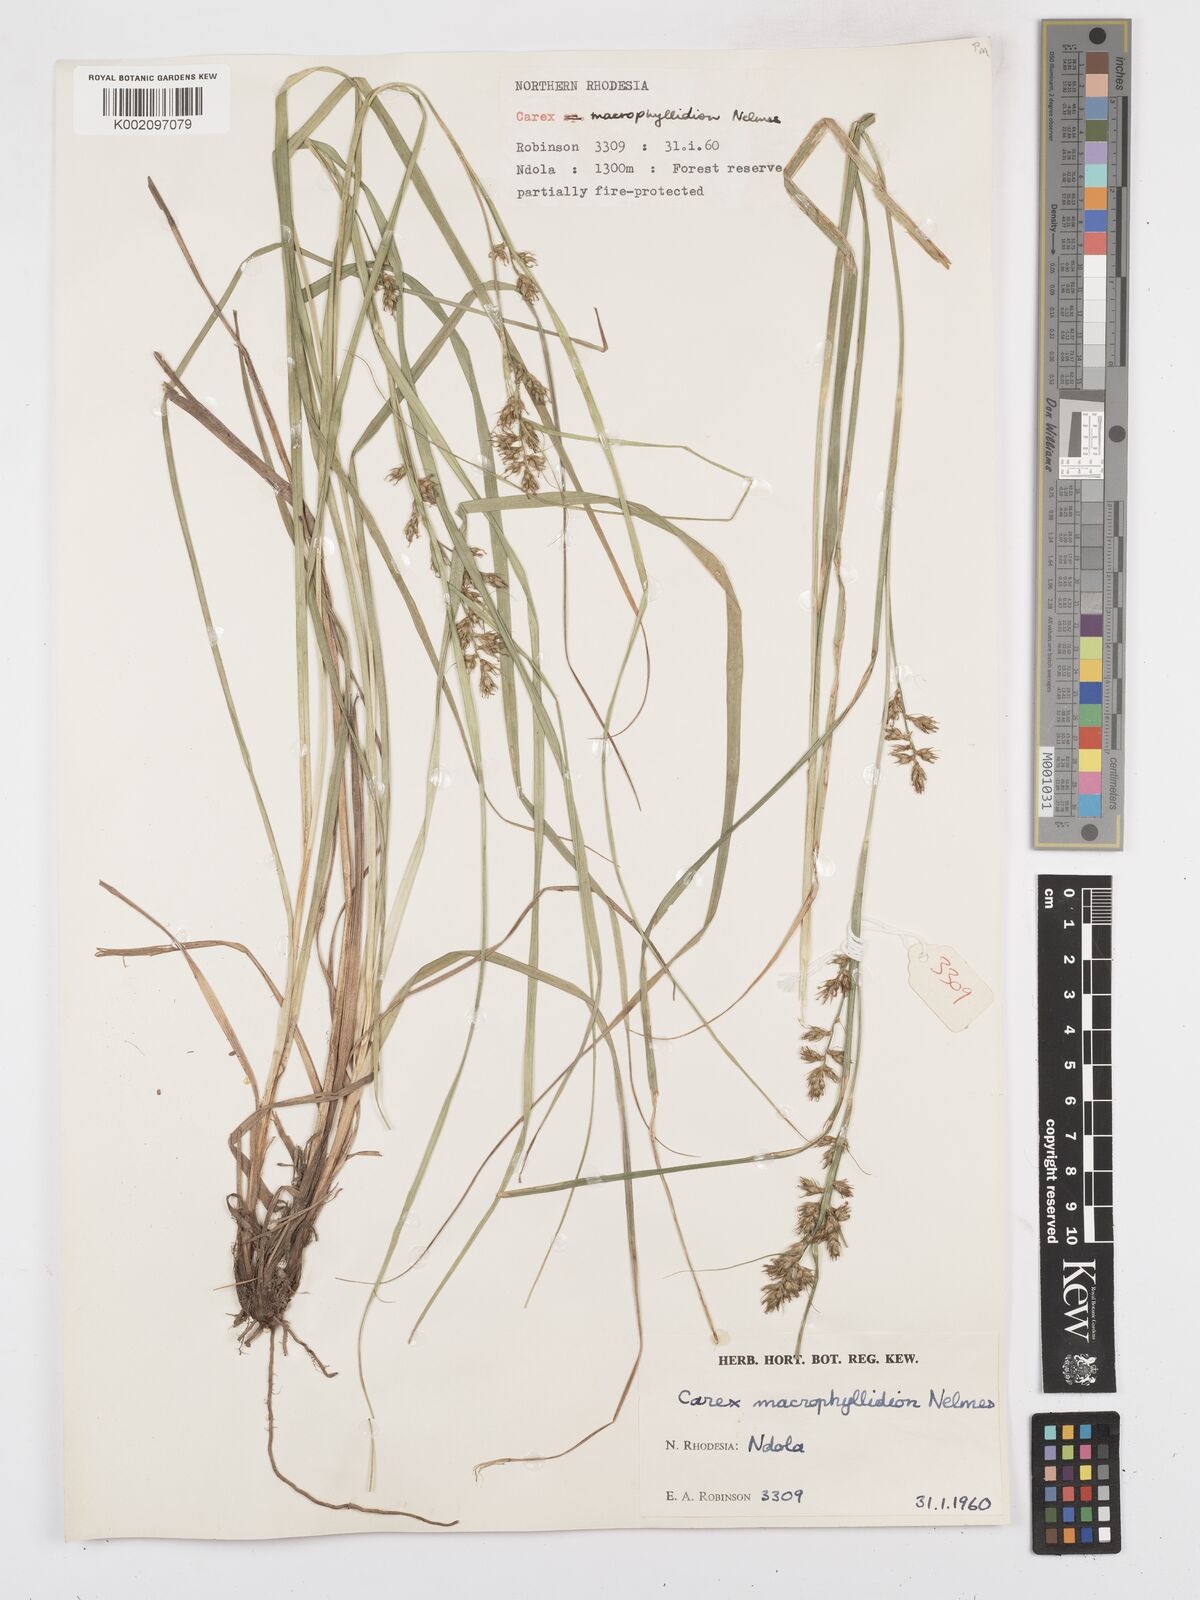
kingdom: Plantae
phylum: Tracheophyta
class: Liliopsida
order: Poales
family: Cyperaceae
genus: Carex
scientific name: Carex macrophyllidion
